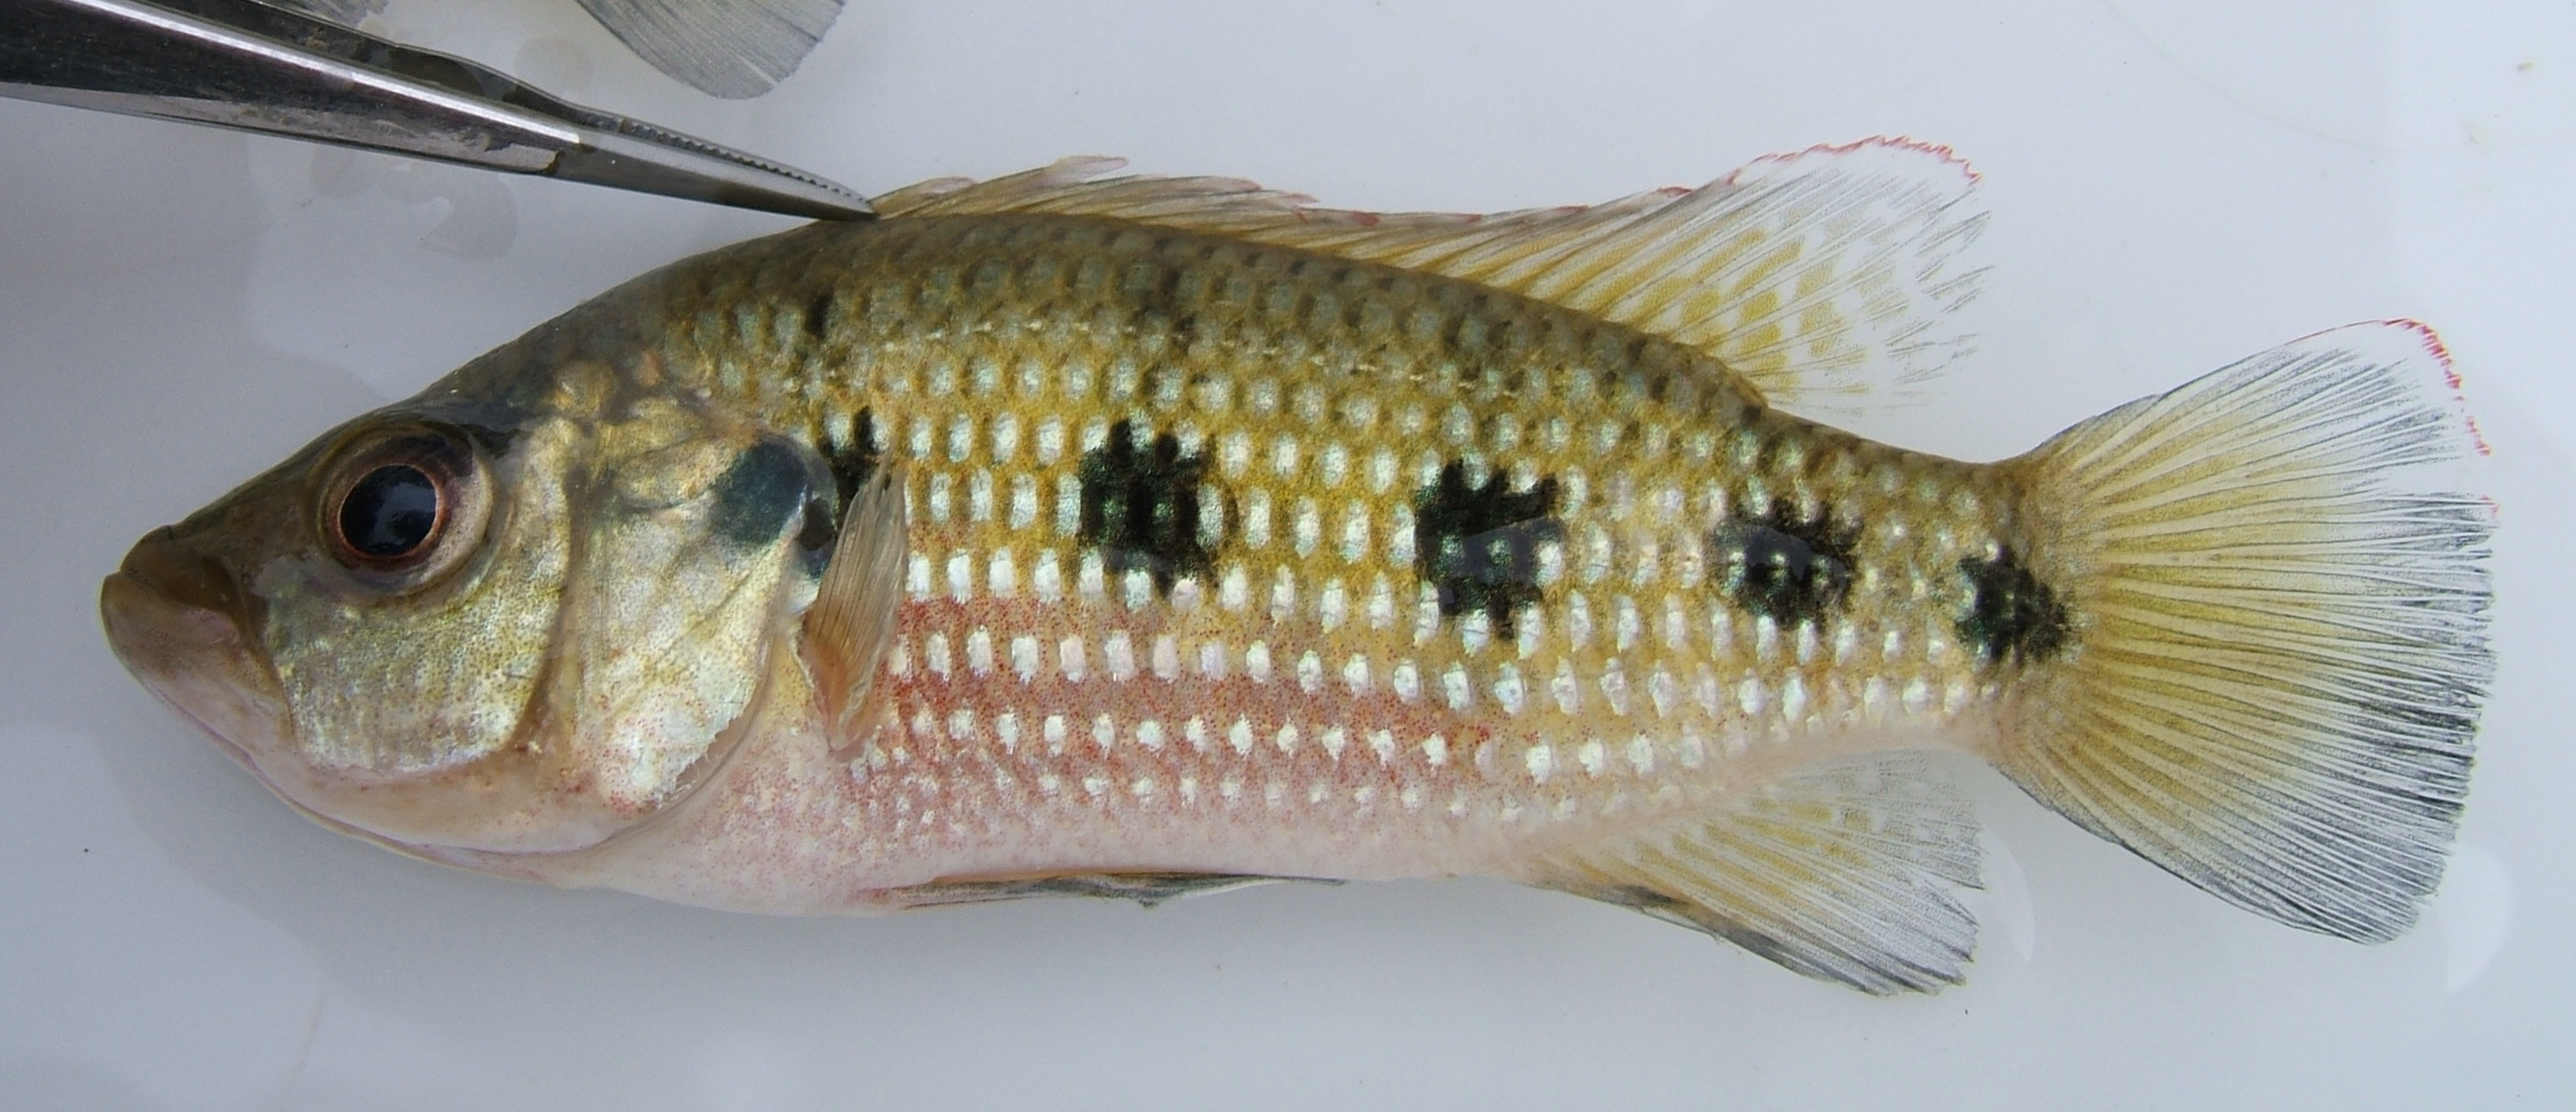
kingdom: Animalia
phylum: Chordata
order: Perciformes
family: Cichlidae
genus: Hemichromis
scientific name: Hemichromis angolensis
